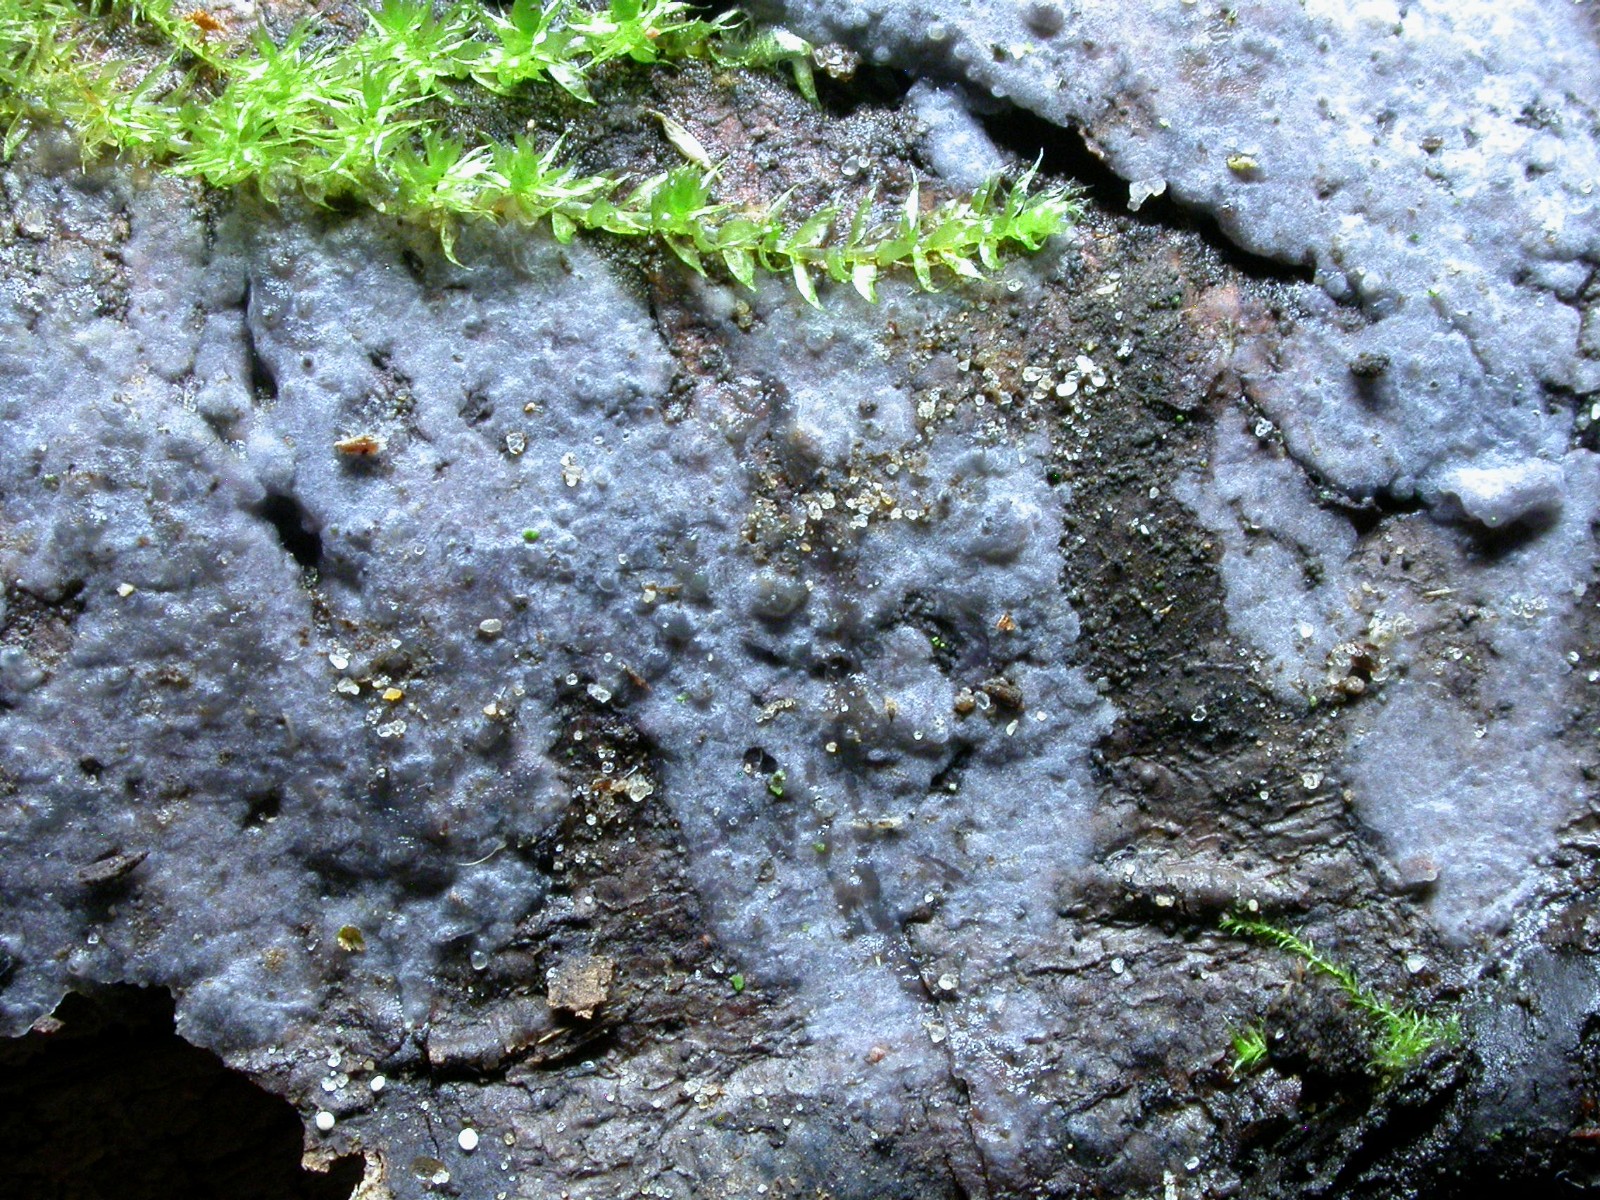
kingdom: Fungi
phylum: Basidiomycota
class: Agaricomycetes
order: Sebacinales
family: Sebacinaceae
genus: Sebacina
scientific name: Sebacina grisea
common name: blågrå bævrehinde
